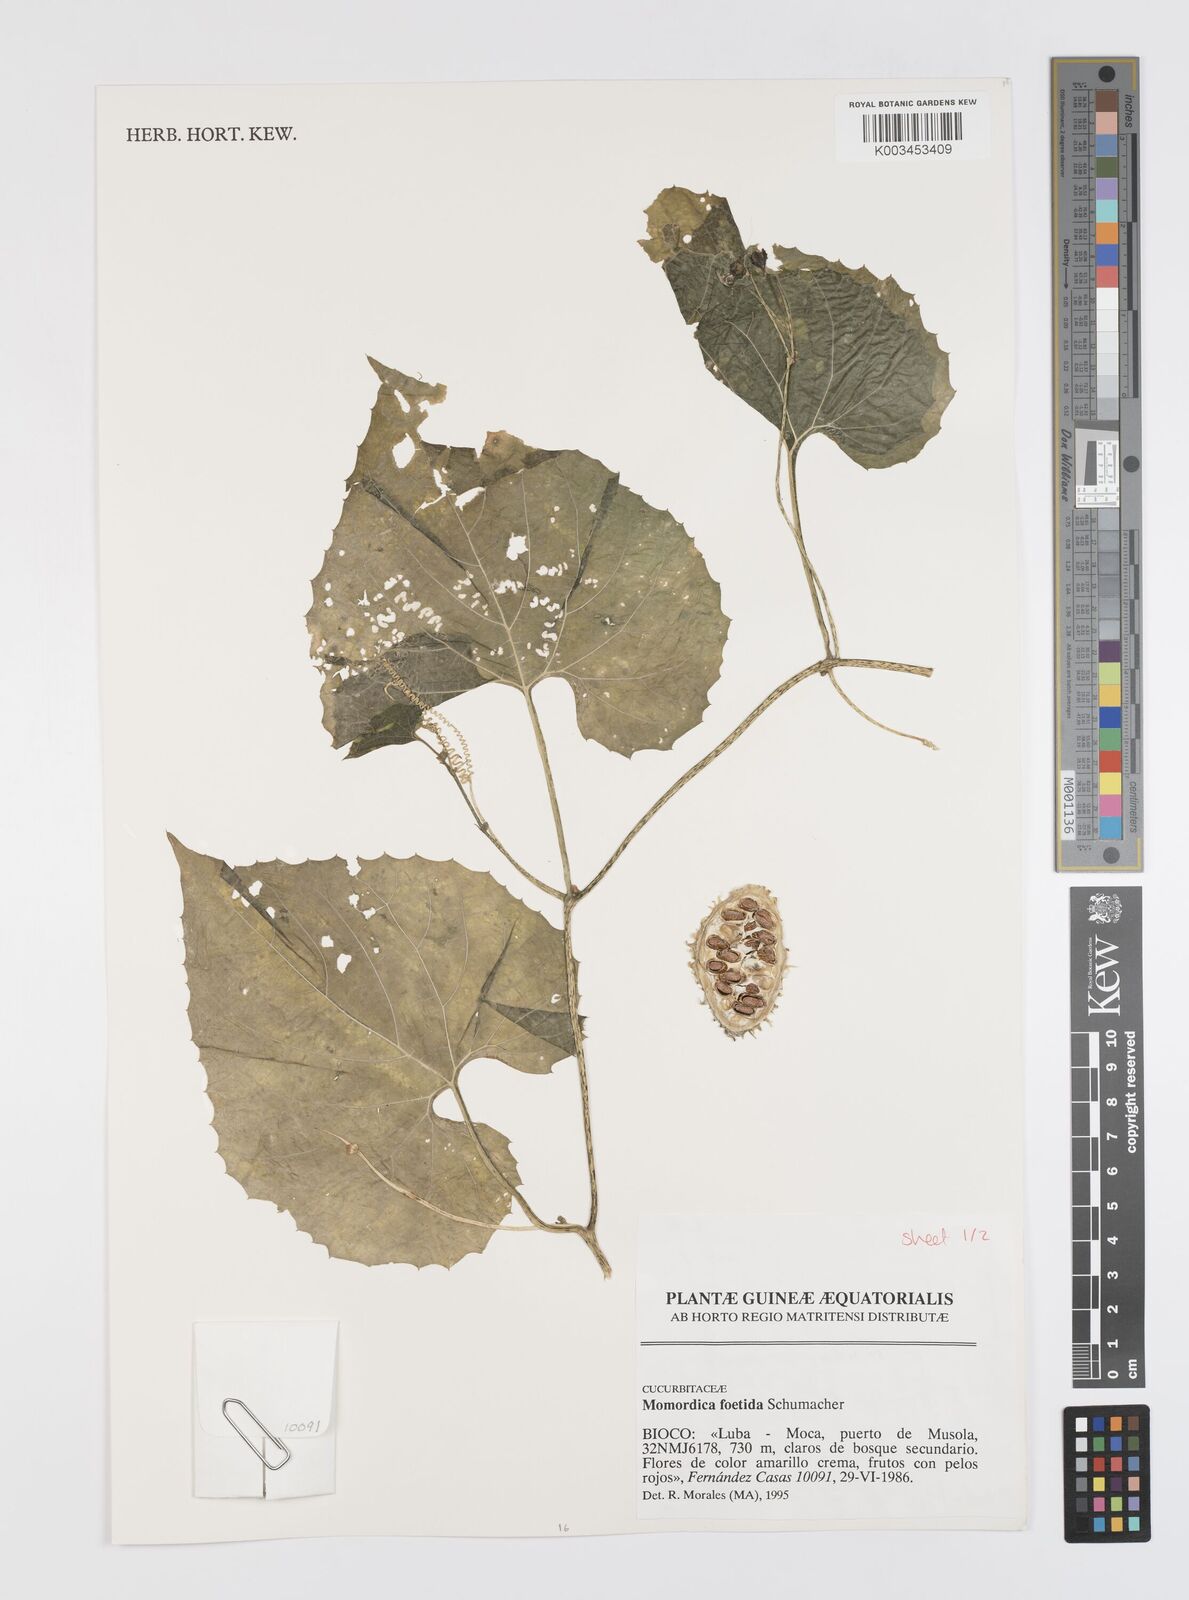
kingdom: Plantae
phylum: Tracheophyta
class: Magnoliopsida
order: Cucurbitales
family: Cucurbitaceae
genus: Momordica
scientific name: Momordica foetida
